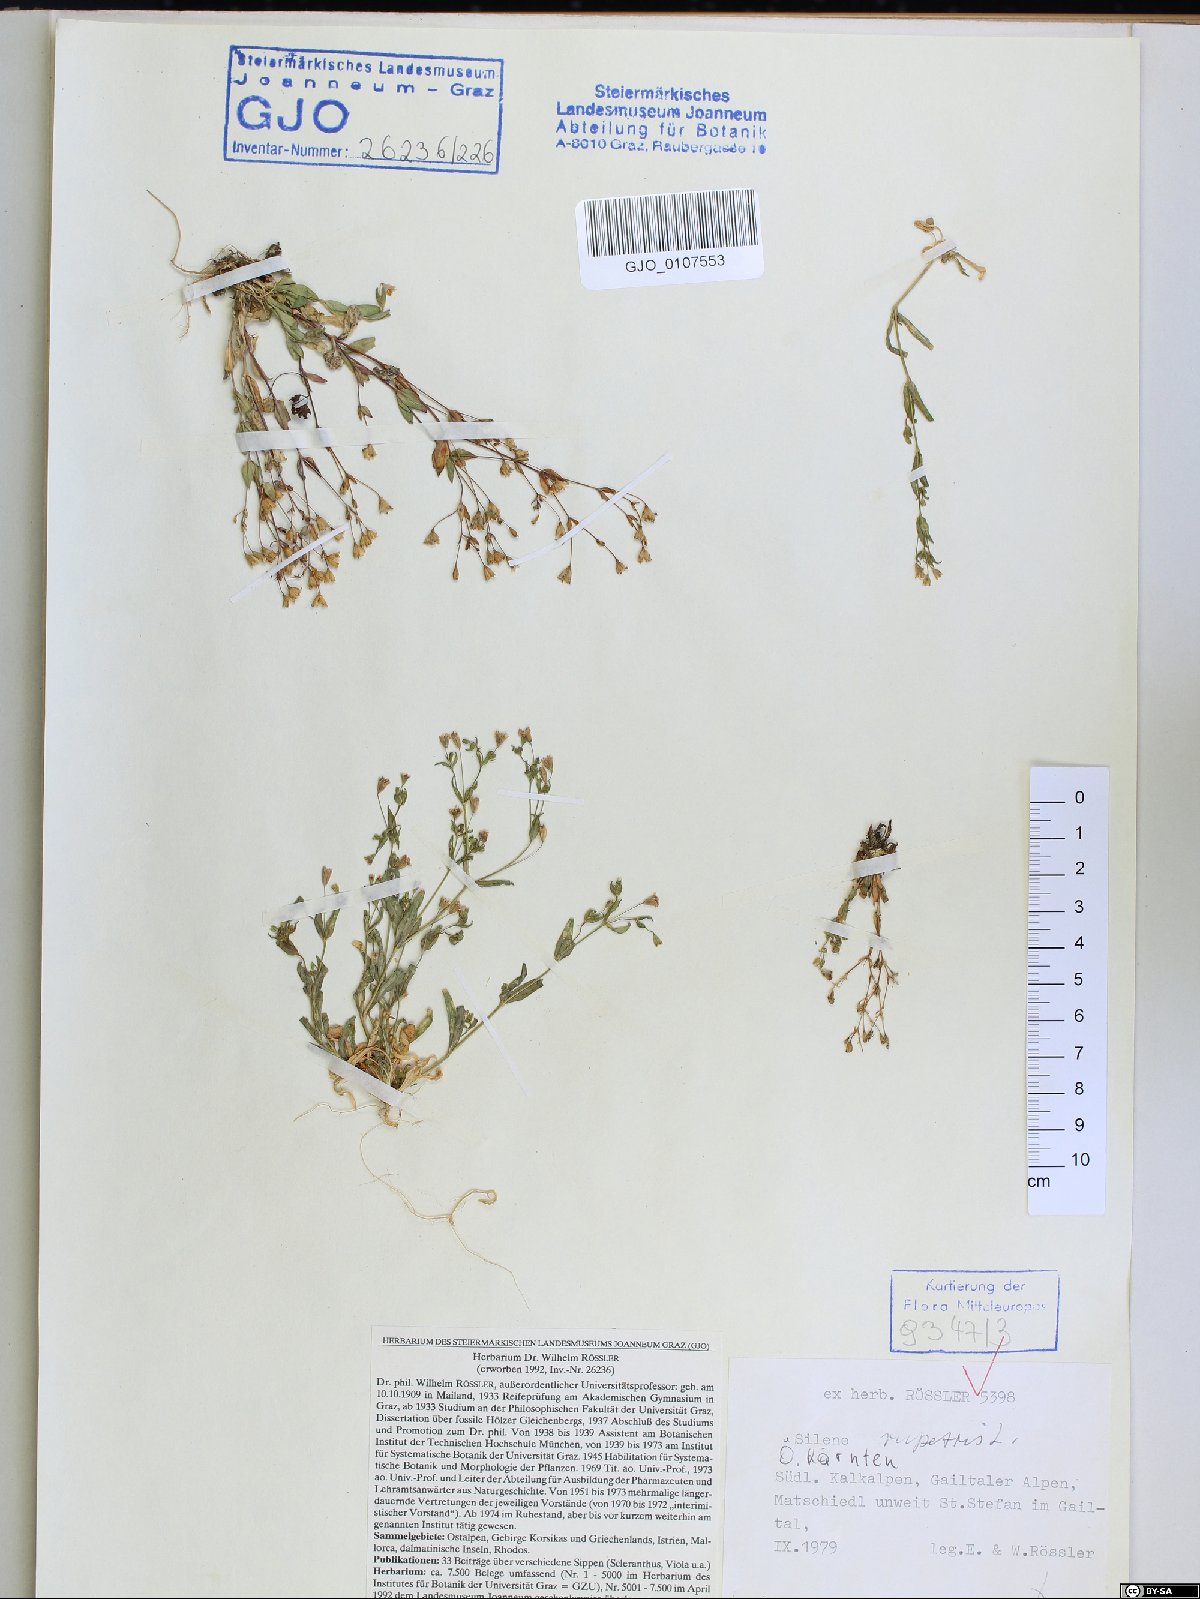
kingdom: Plantae
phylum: Tracheophyta
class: Magnoliopsida
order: Caryophyllales
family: Caryophyllaceae
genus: Atocion
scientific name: Atocion rupestre
